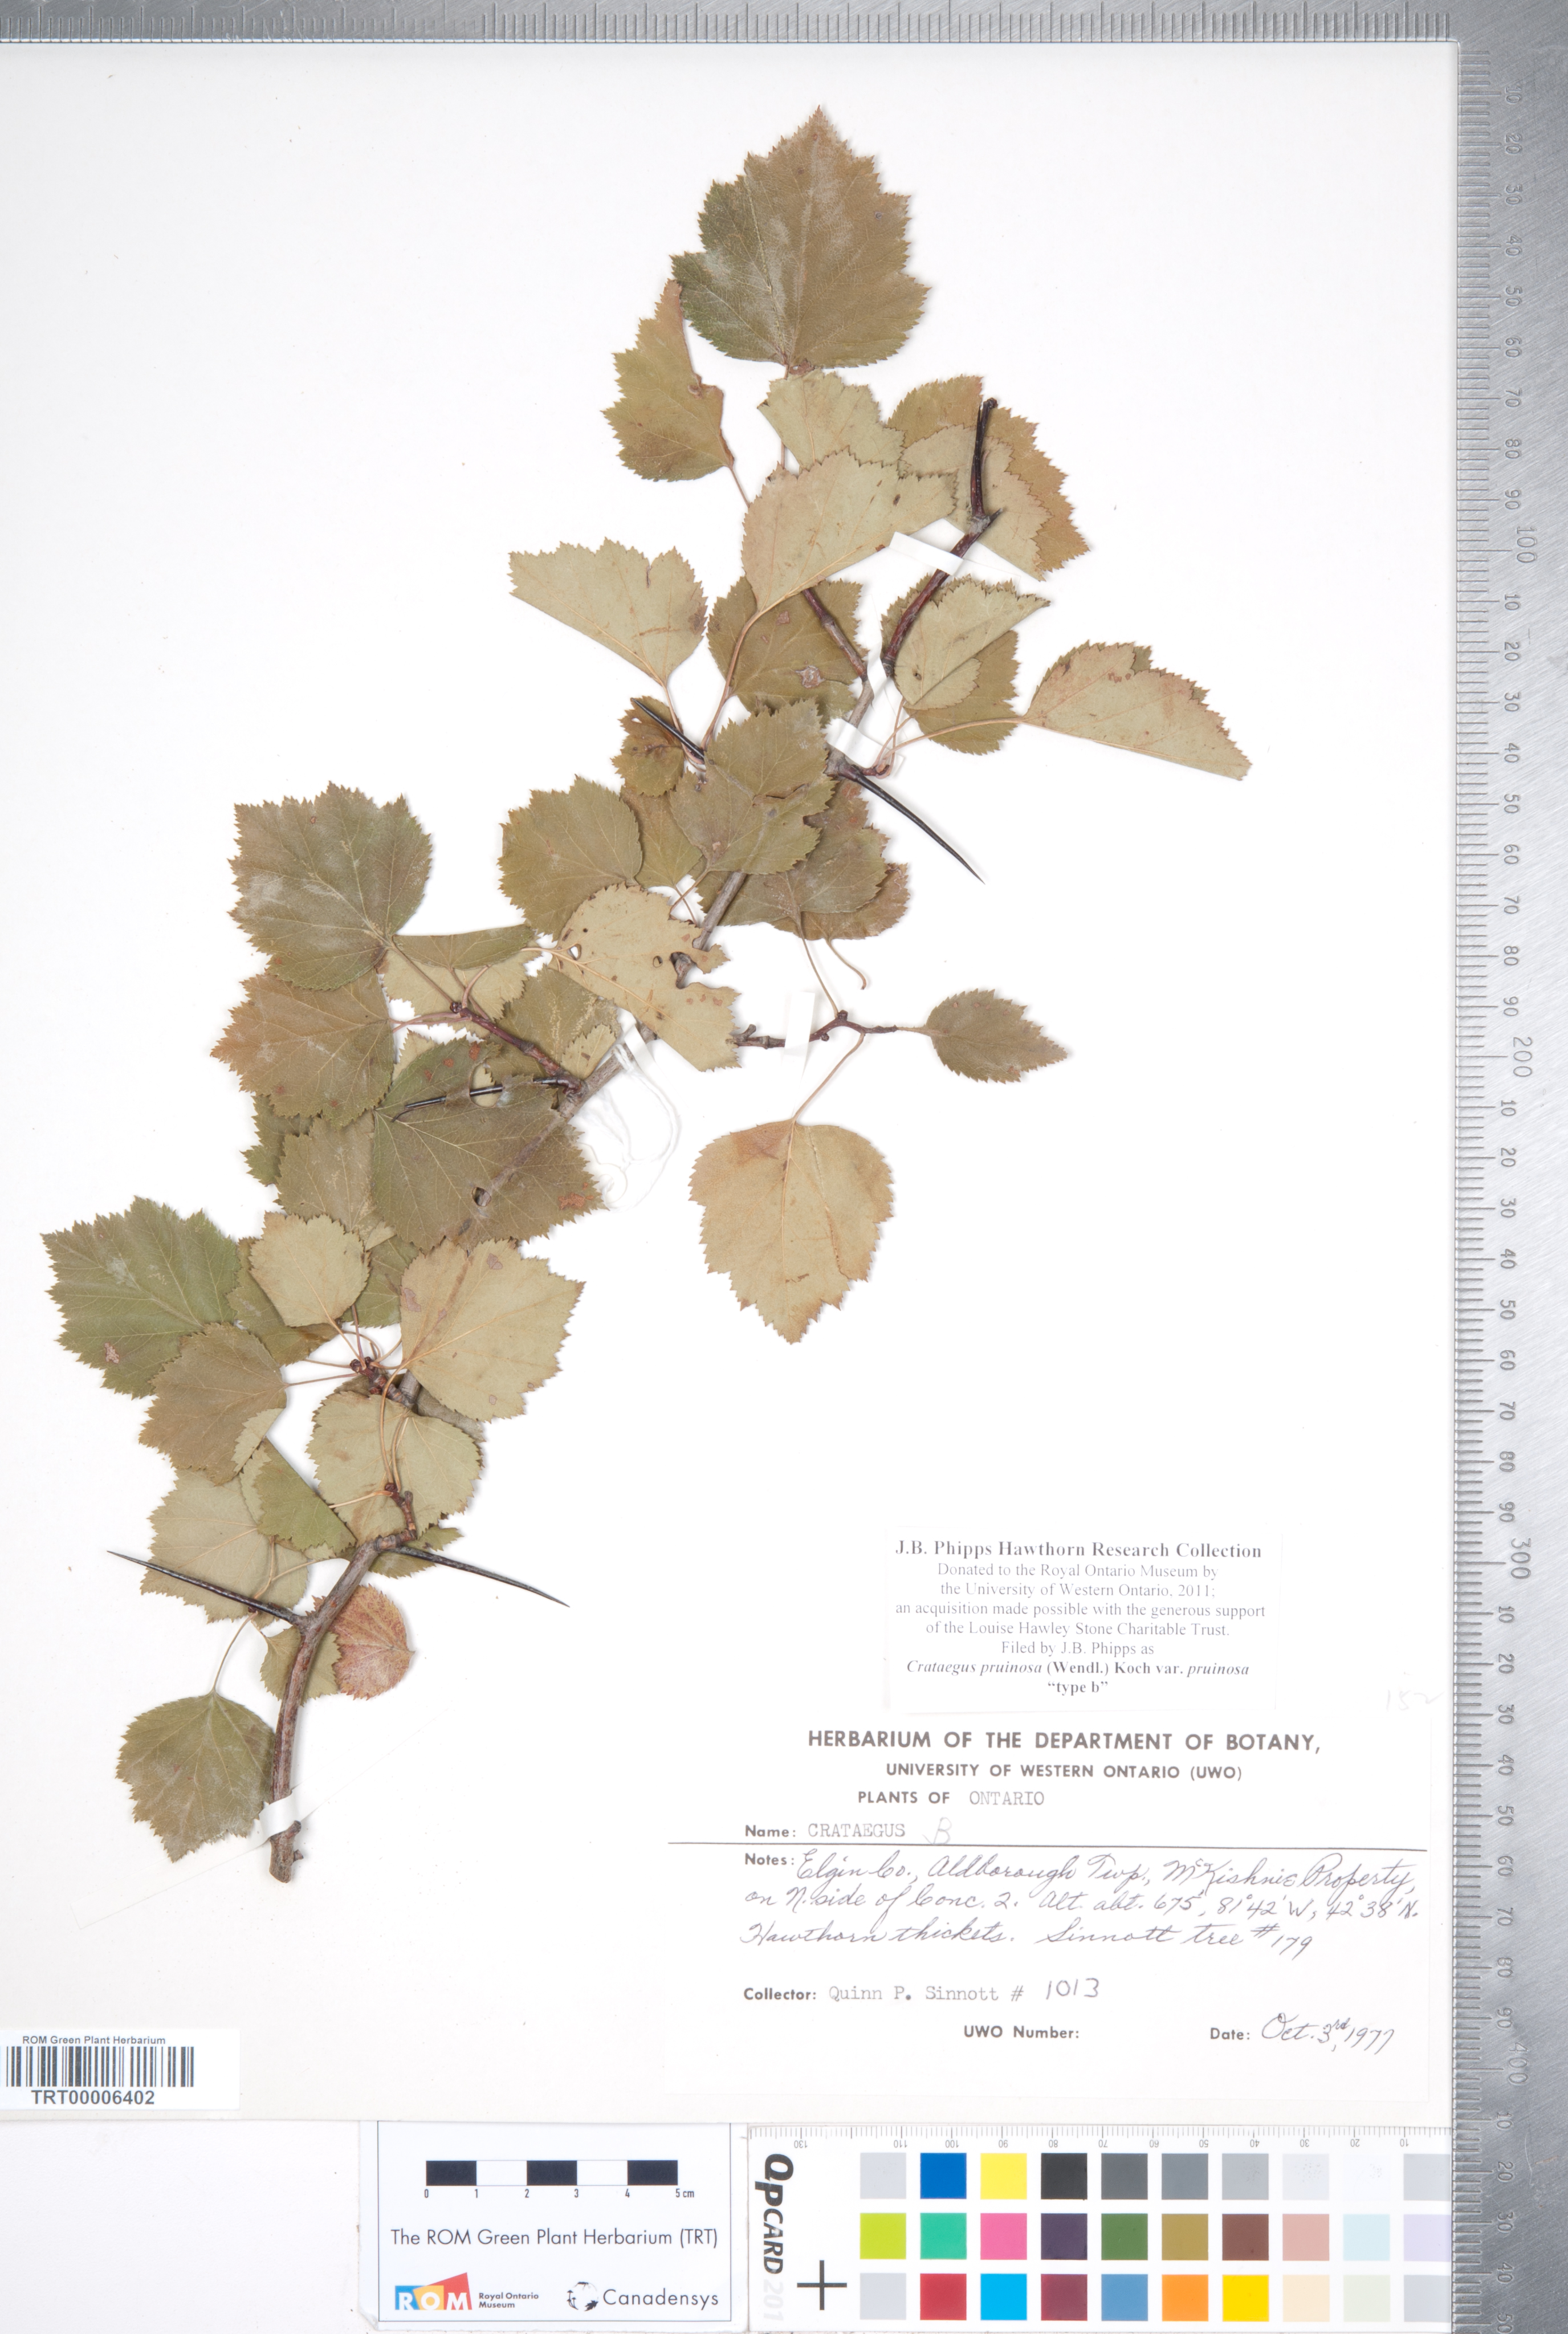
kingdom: Plantae
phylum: Tracheophyta
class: Magnoliopsida
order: Rosales
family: Rosaceae
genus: Crataegus
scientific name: Crataegus pruinosa
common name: Waxy-fruit hawthorn
